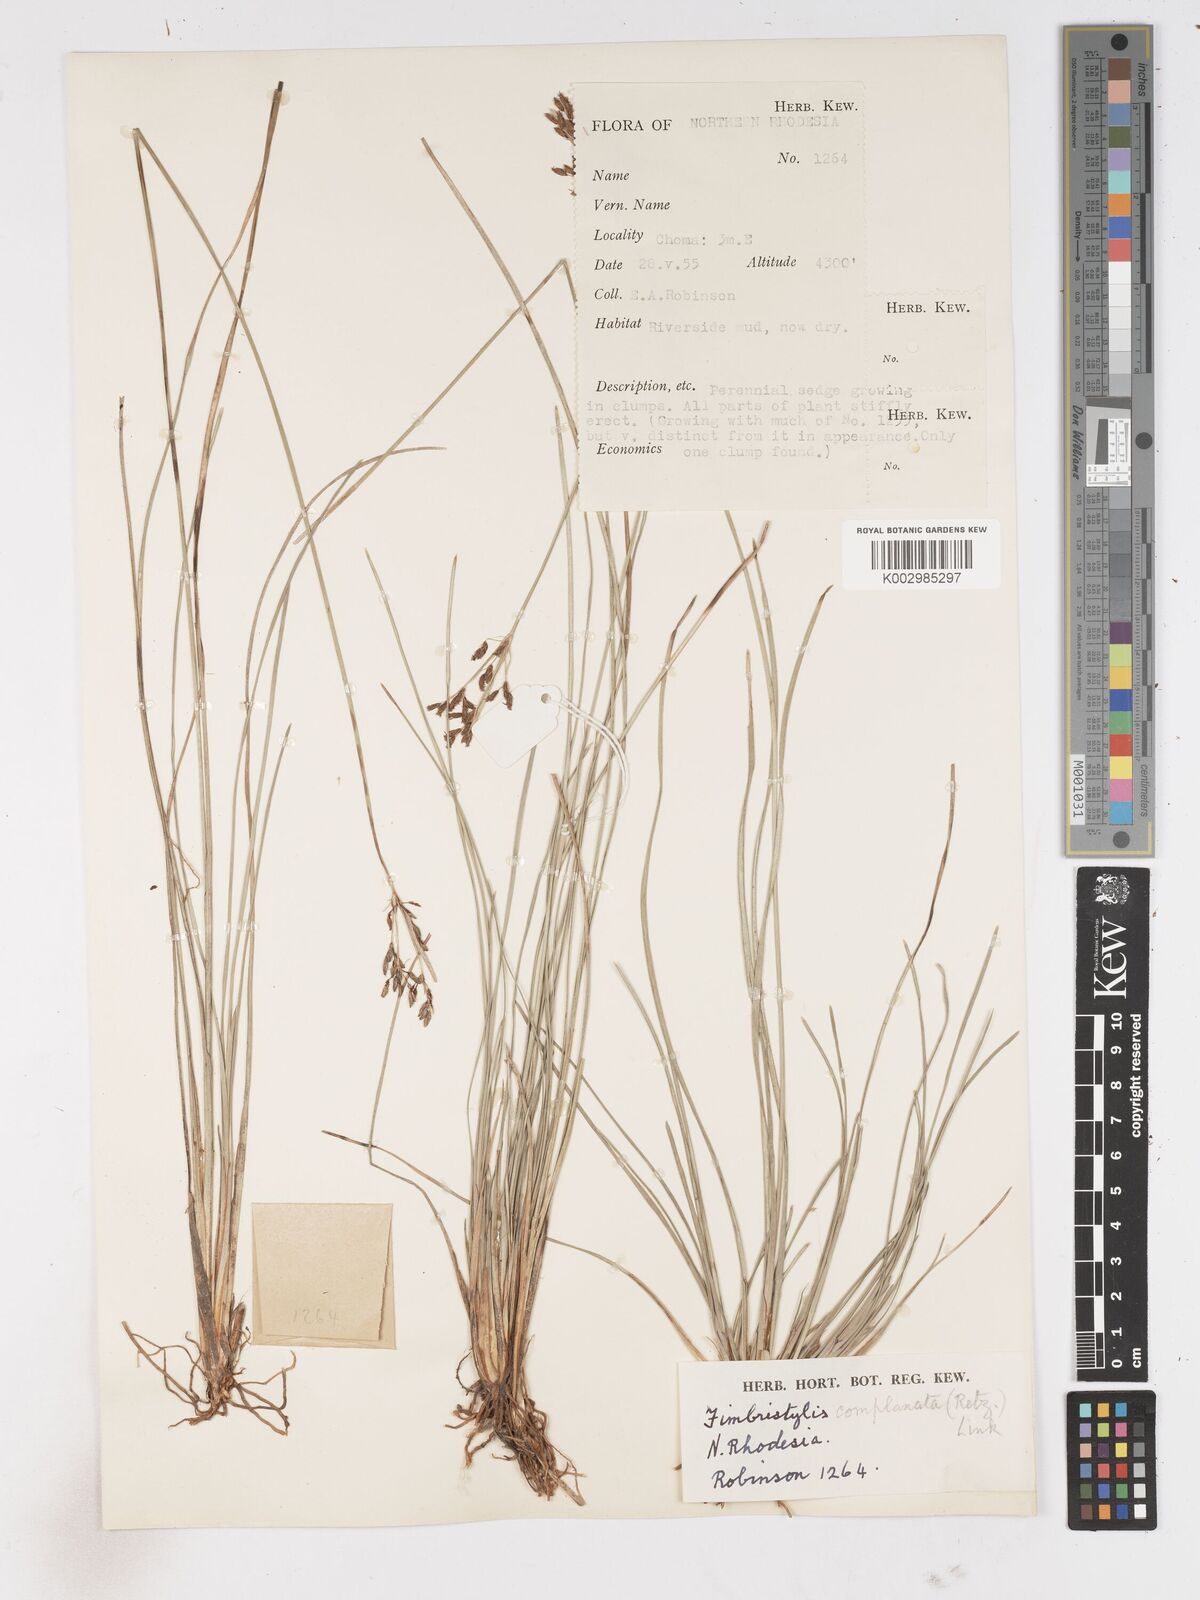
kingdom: Plantae
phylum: Tracheophyta
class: Liliopsida
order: Poales
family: Cyperaceae
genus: Fimbristylis
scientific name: Fimbristylis complanata
